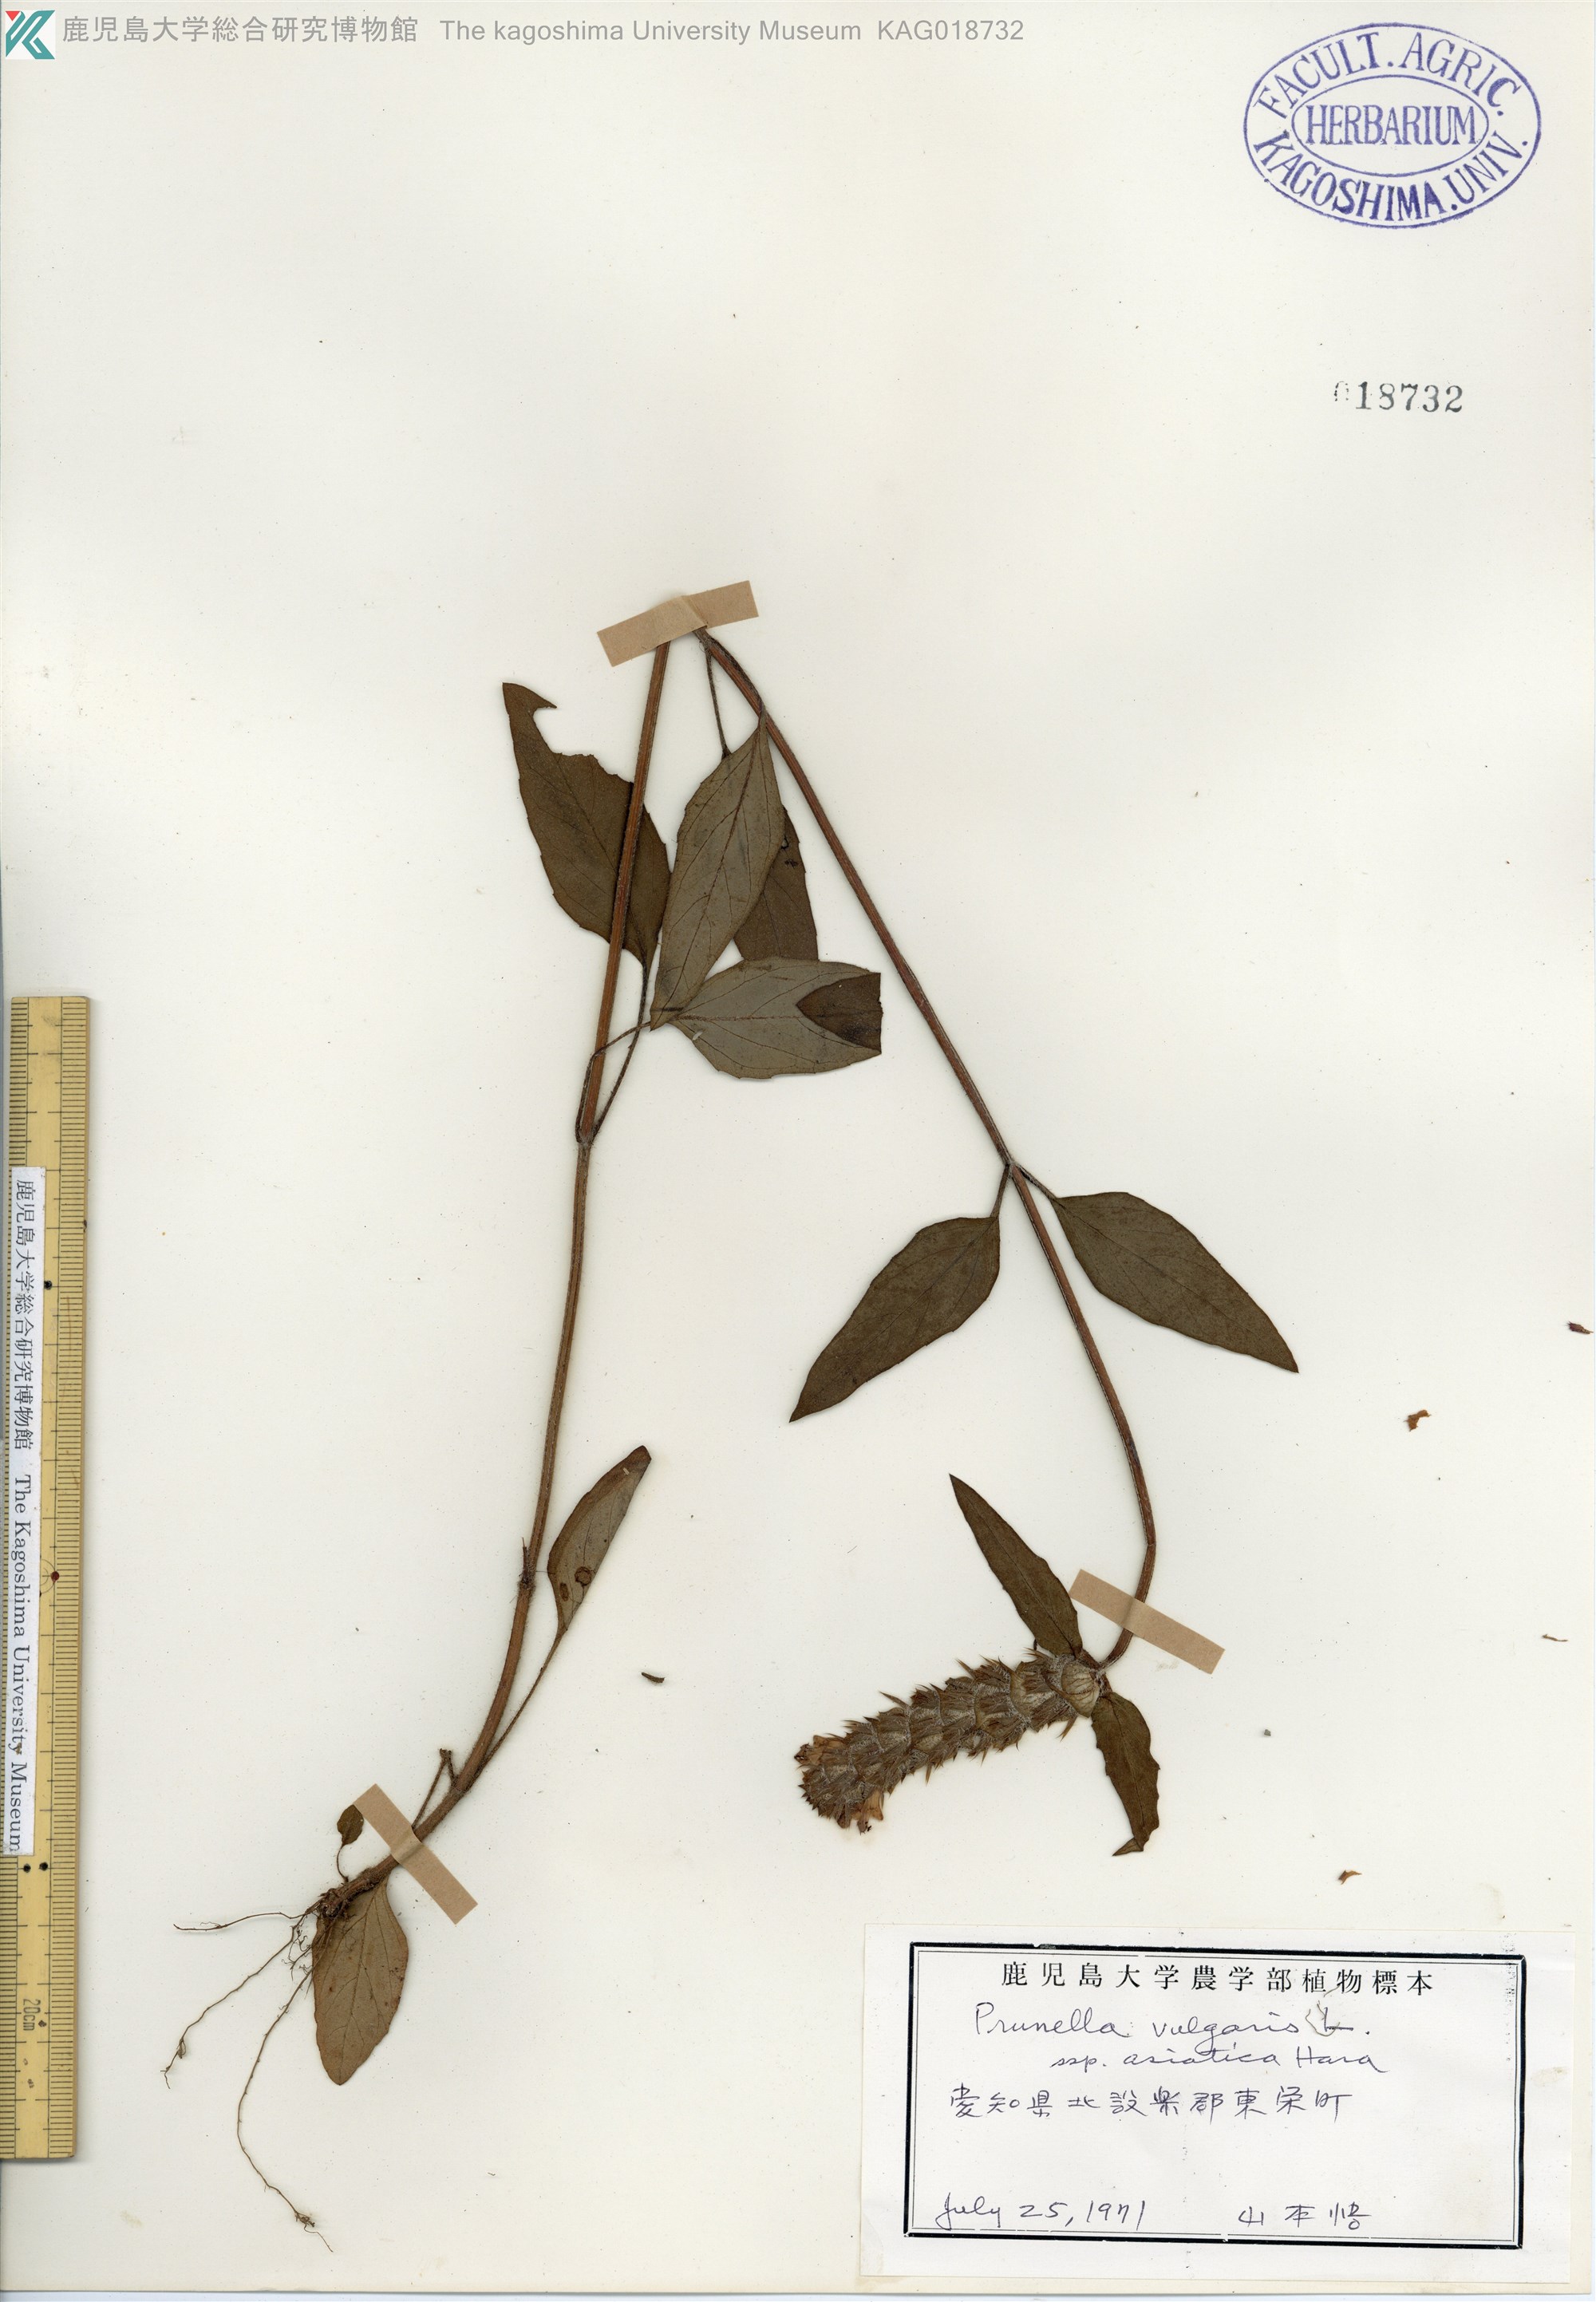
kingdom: Plantae
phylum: Tracheophyta
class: Magnoliopsida
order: Lamiales
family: Lamiaceae
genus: Prunella
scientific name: Prunella vulgaris
